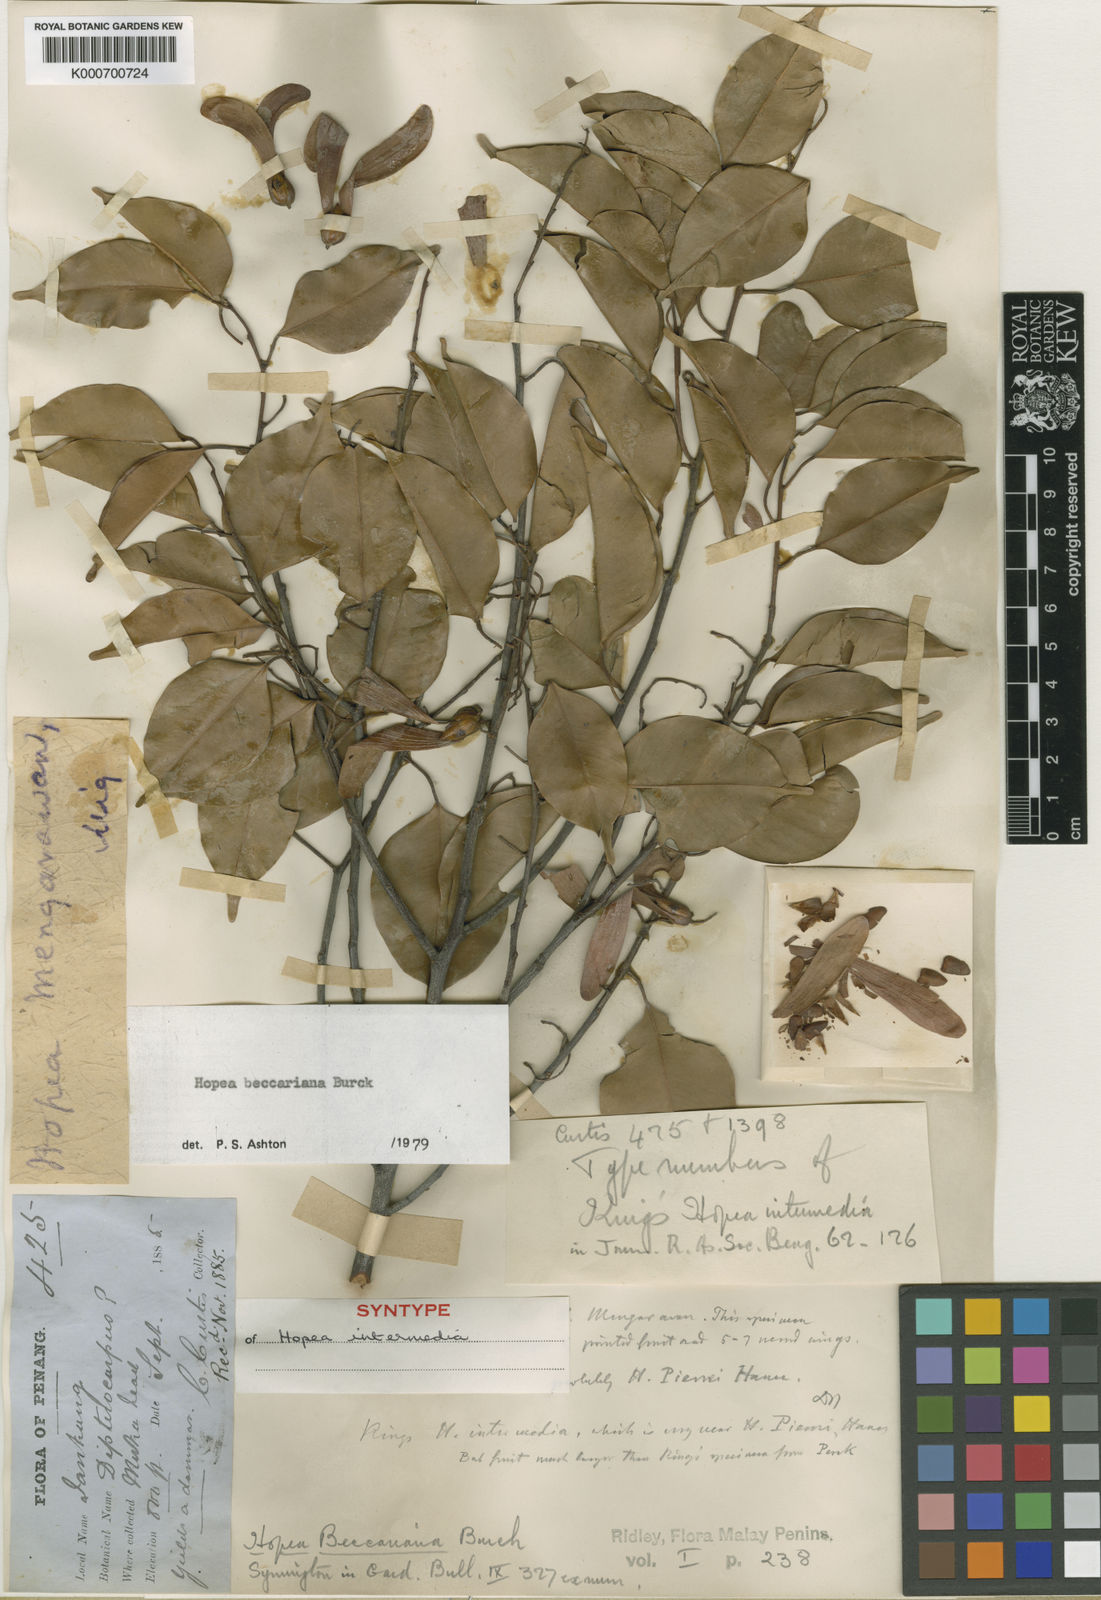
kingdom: Plantae
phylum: Tracheophyta
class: Magnoliopsida
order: Malvales
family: Dipterocarpaceae
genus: Hopea
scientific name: Hopea beccariana
